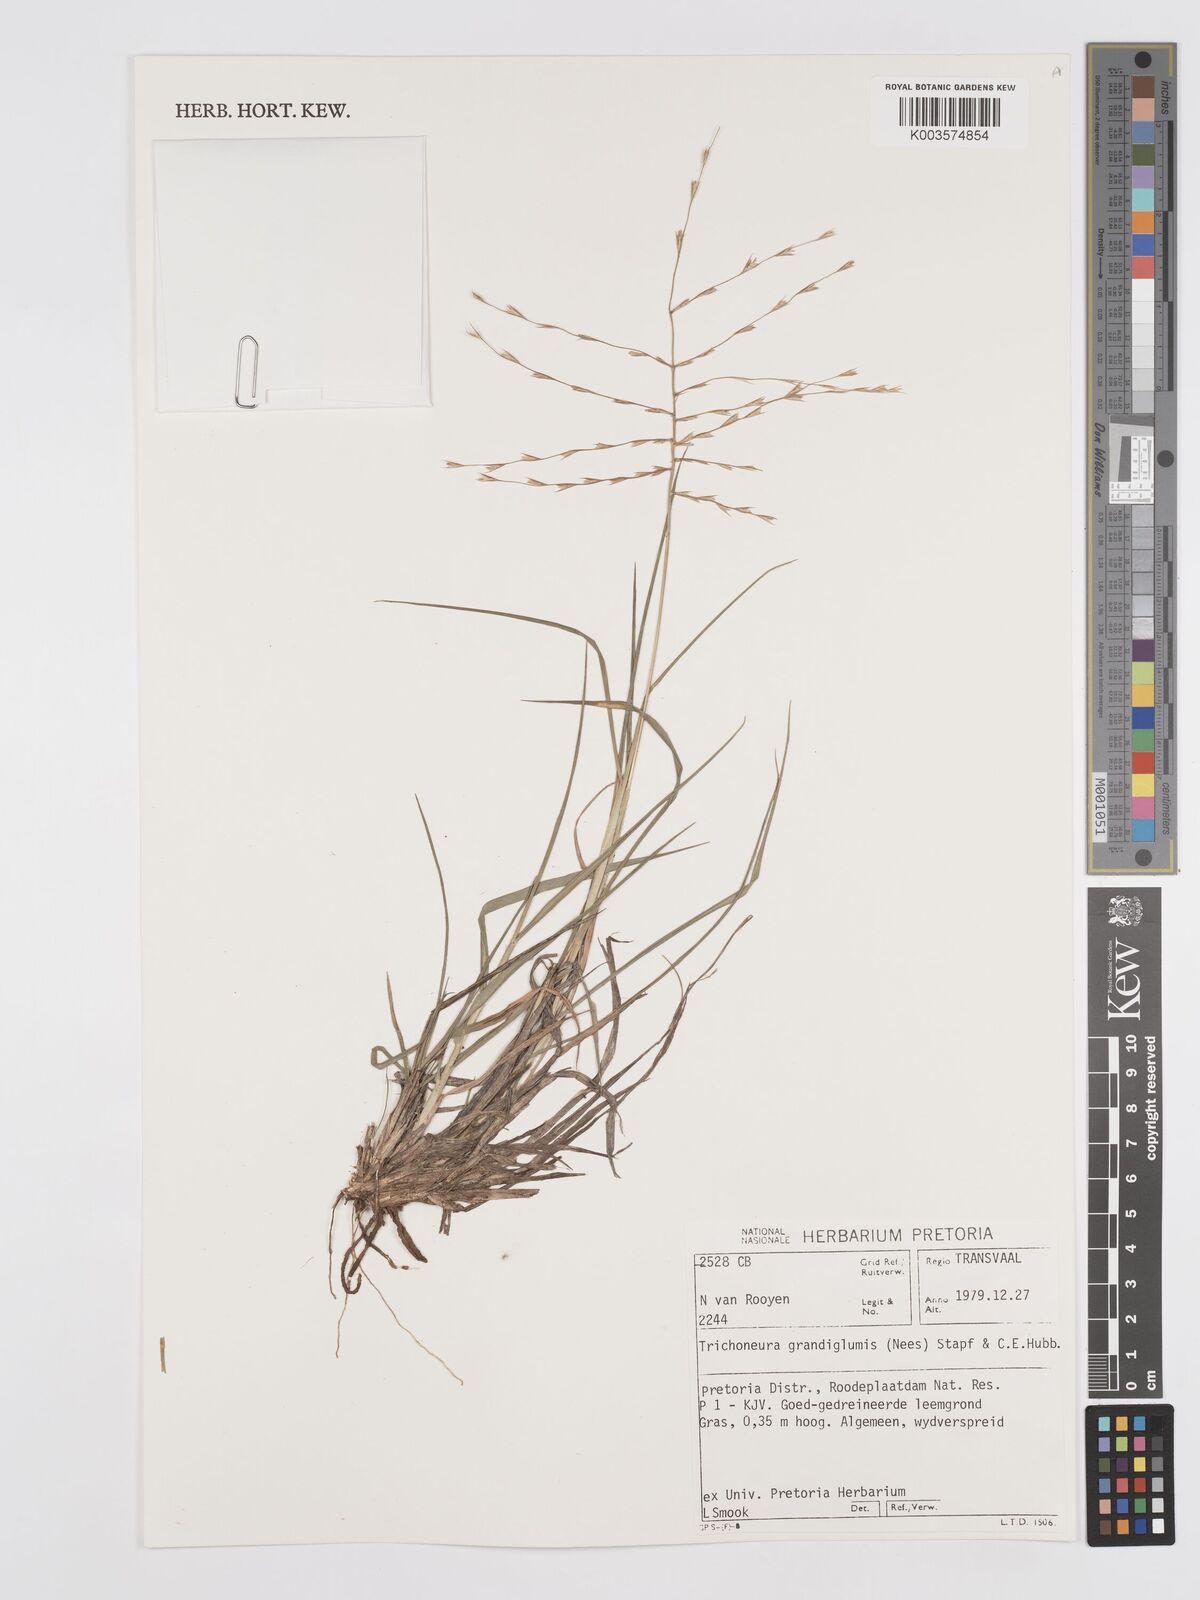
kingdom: Plantae
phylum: Tracheophyta
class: Liliopsida
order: Poales
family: Poaceae
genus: Trichoneura
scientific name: Trichoneura grandiglumis
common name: Rolling grass
